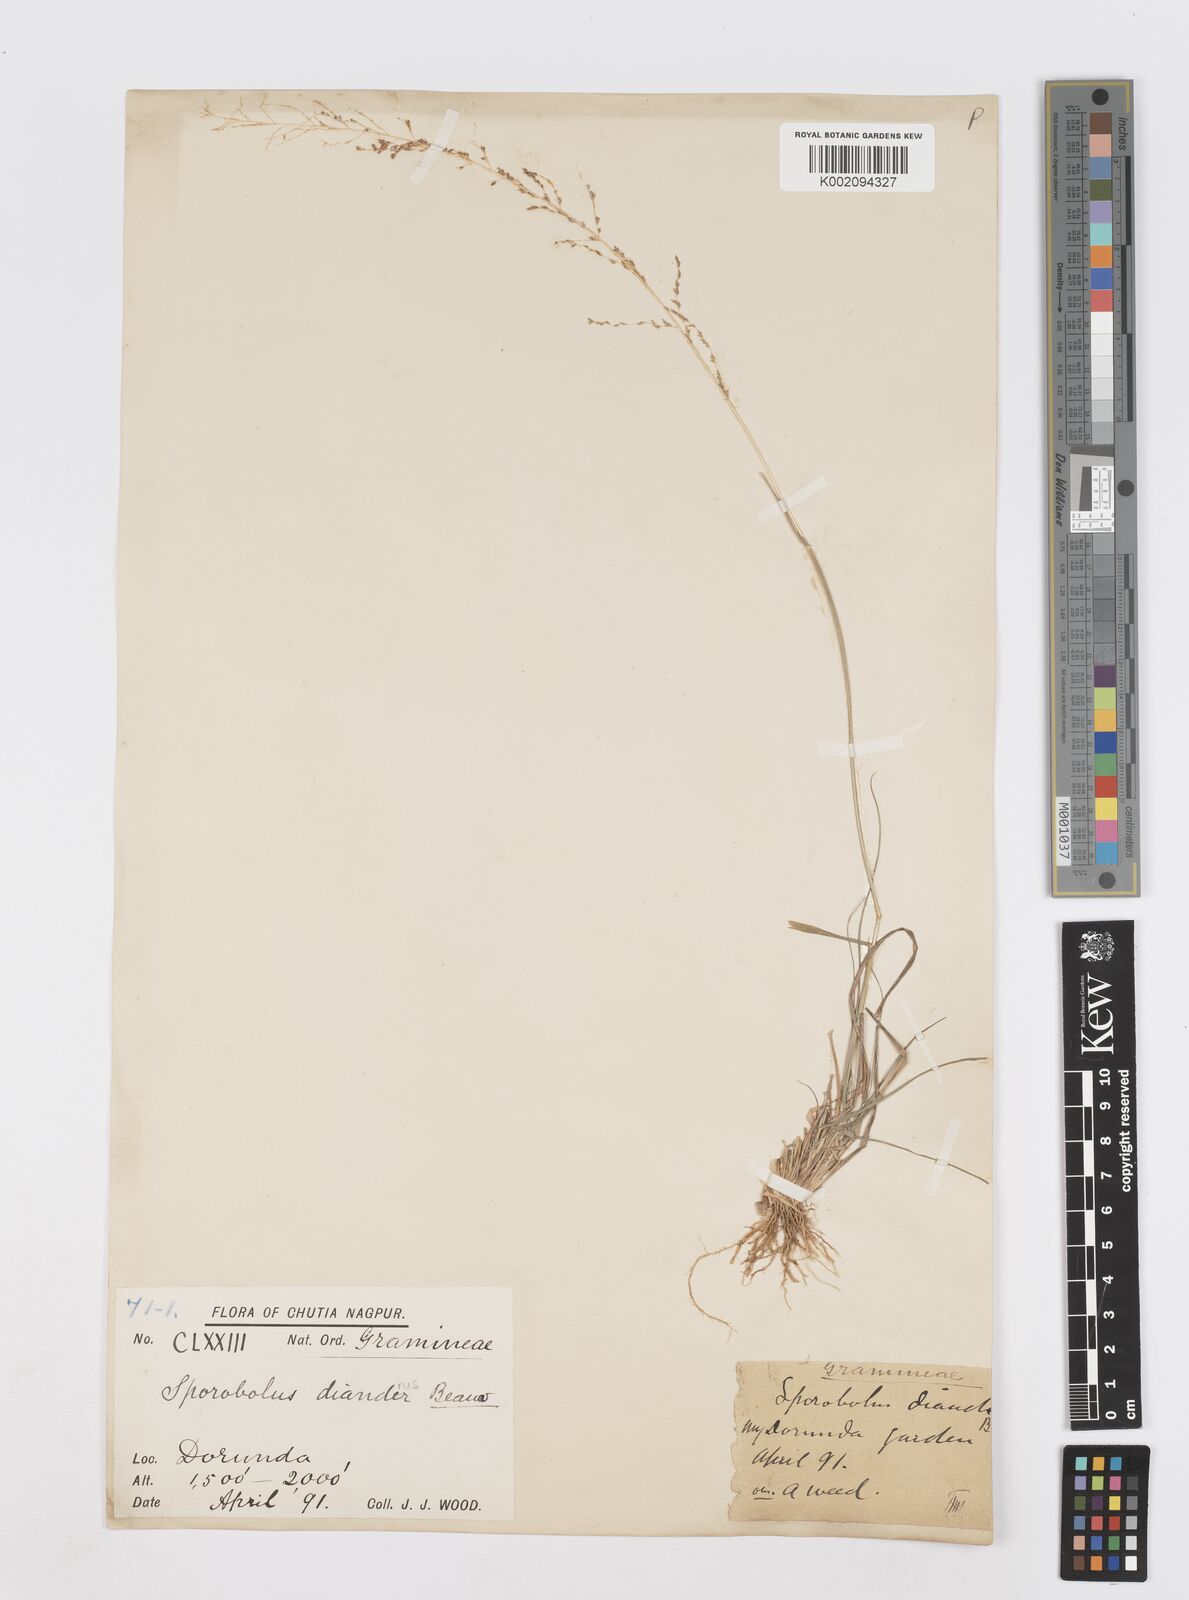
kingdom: Plantae
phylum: Tracheophyta
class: Liliopsida
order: Poales
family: Poaceae
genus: Sporobolus
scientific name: Sporobolus diandrus
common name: Tussock dropseed
